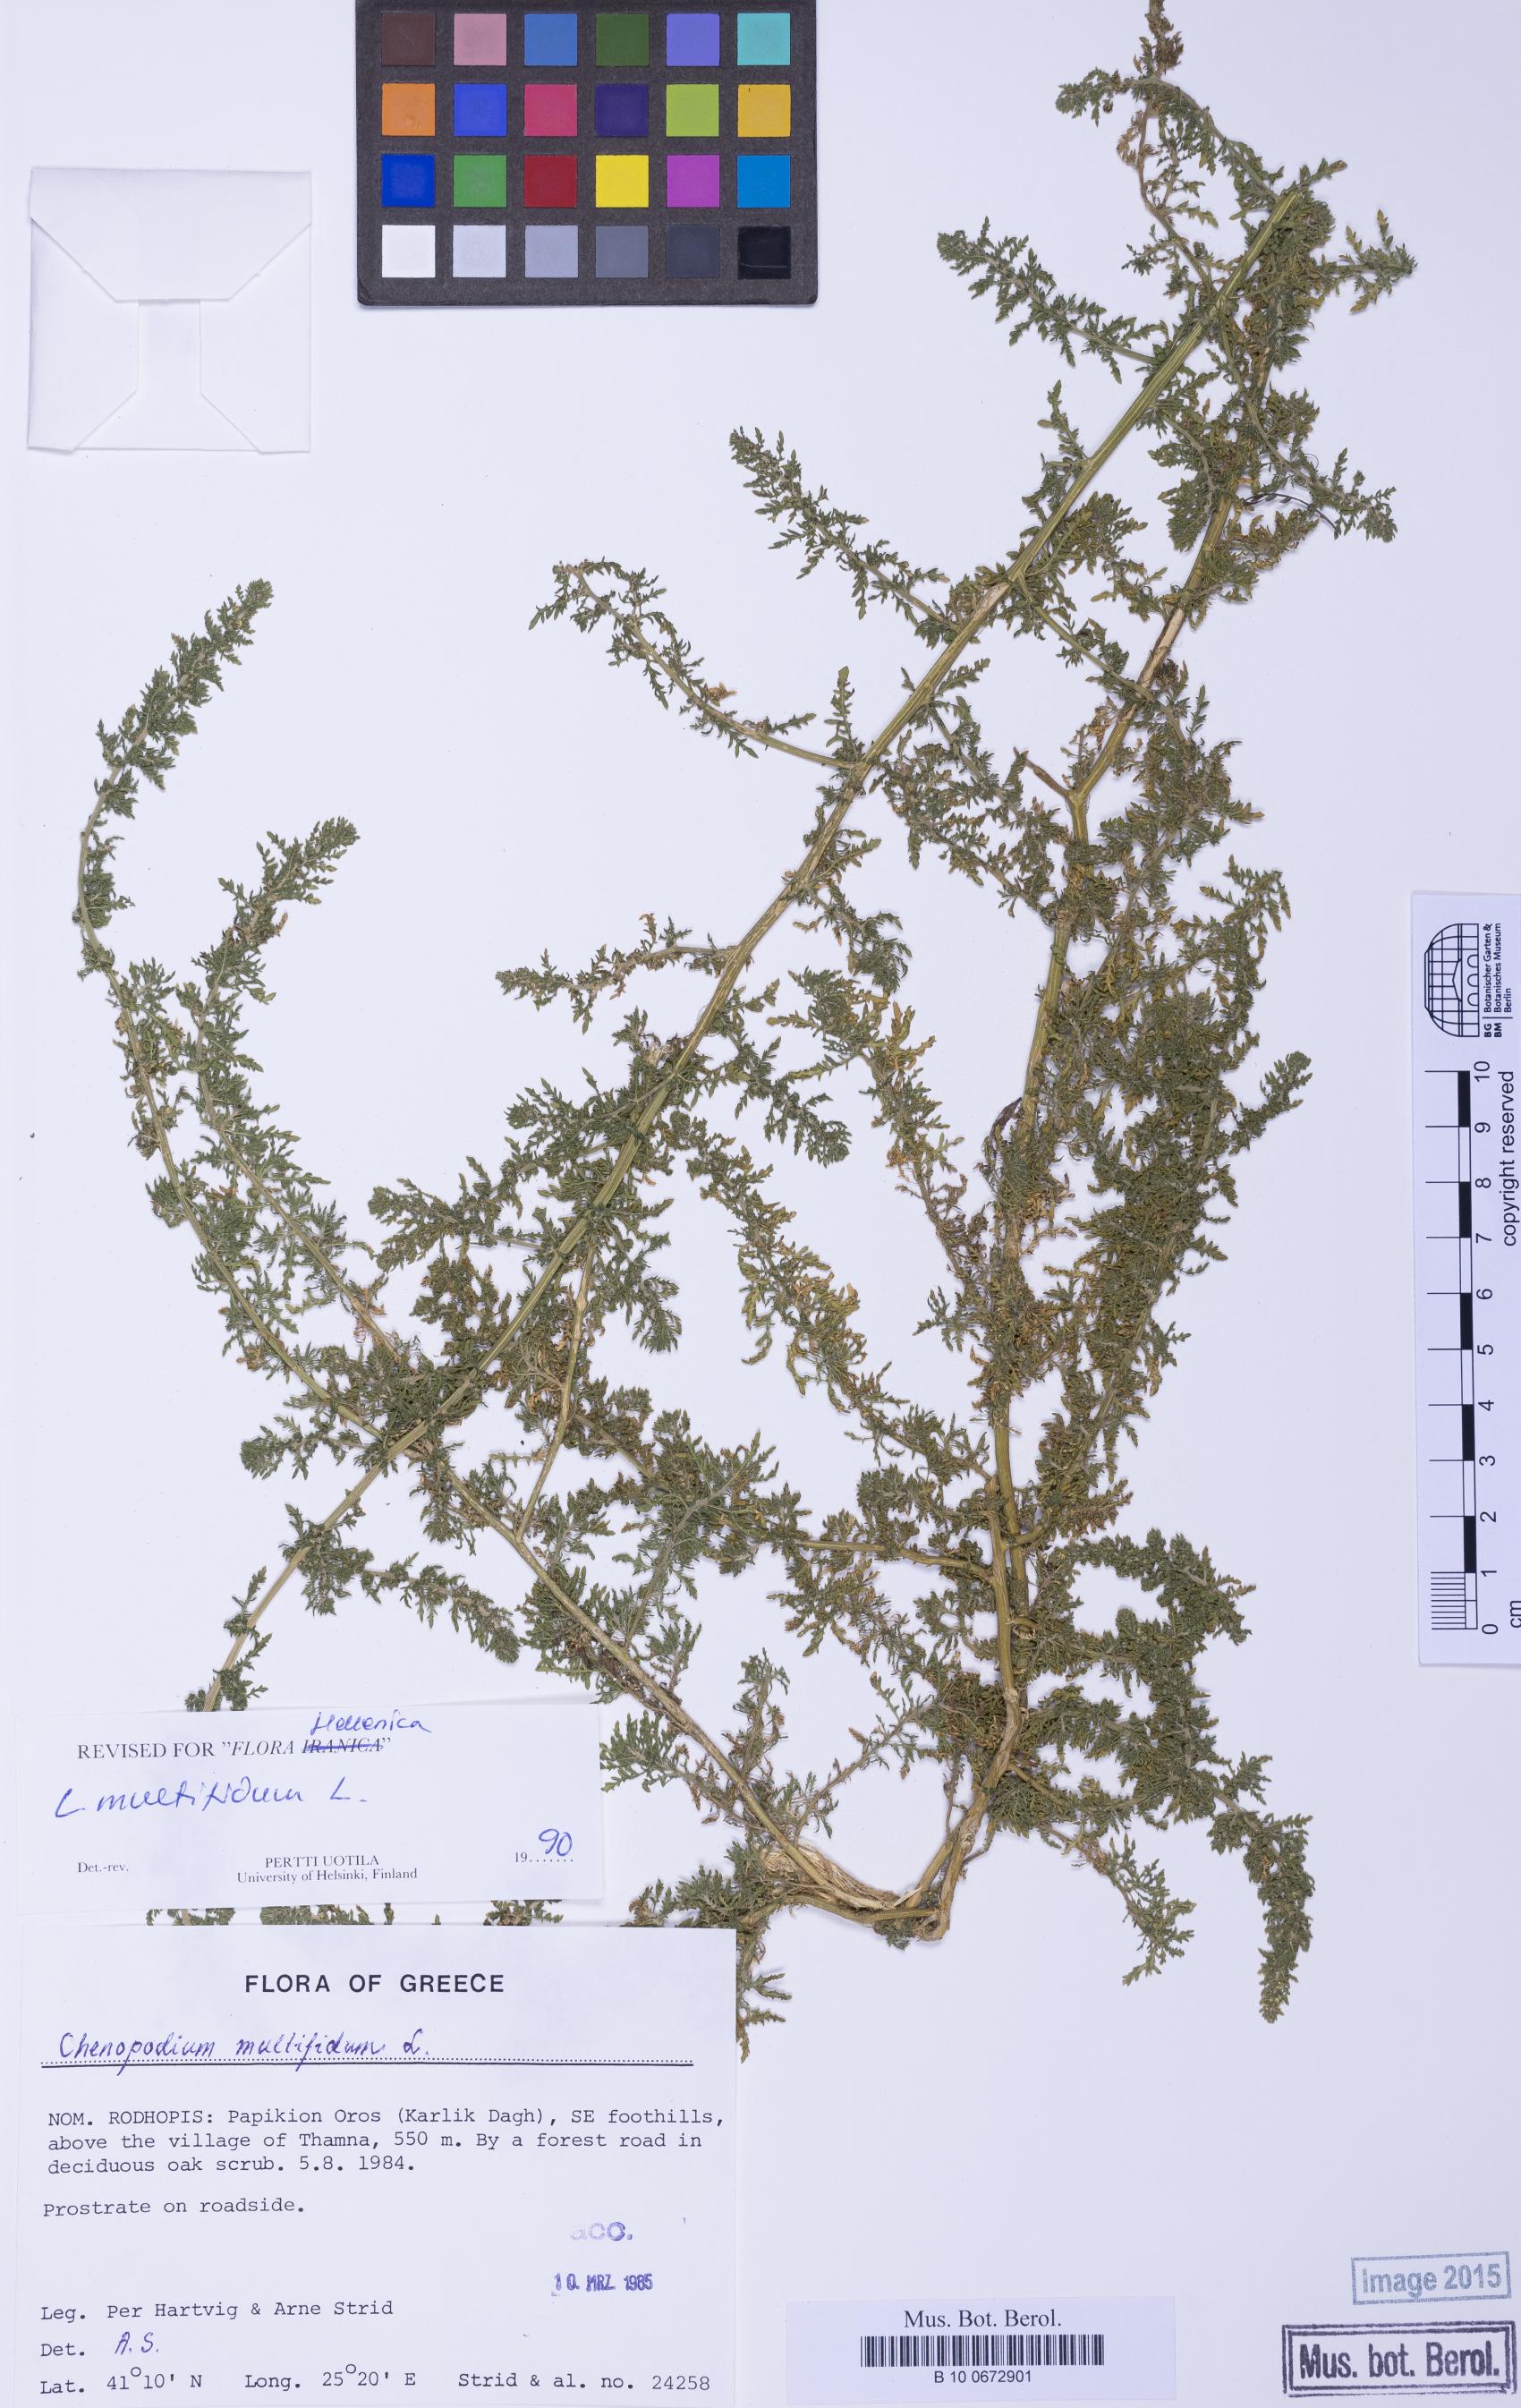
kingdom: Plantae
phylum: Tracheophyta
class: Magnoliopsida
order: Caryophyllales
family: Amaranthaceae
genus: Dysphania
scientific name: Dysphania multifida
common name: Cutleaf goosefoot
